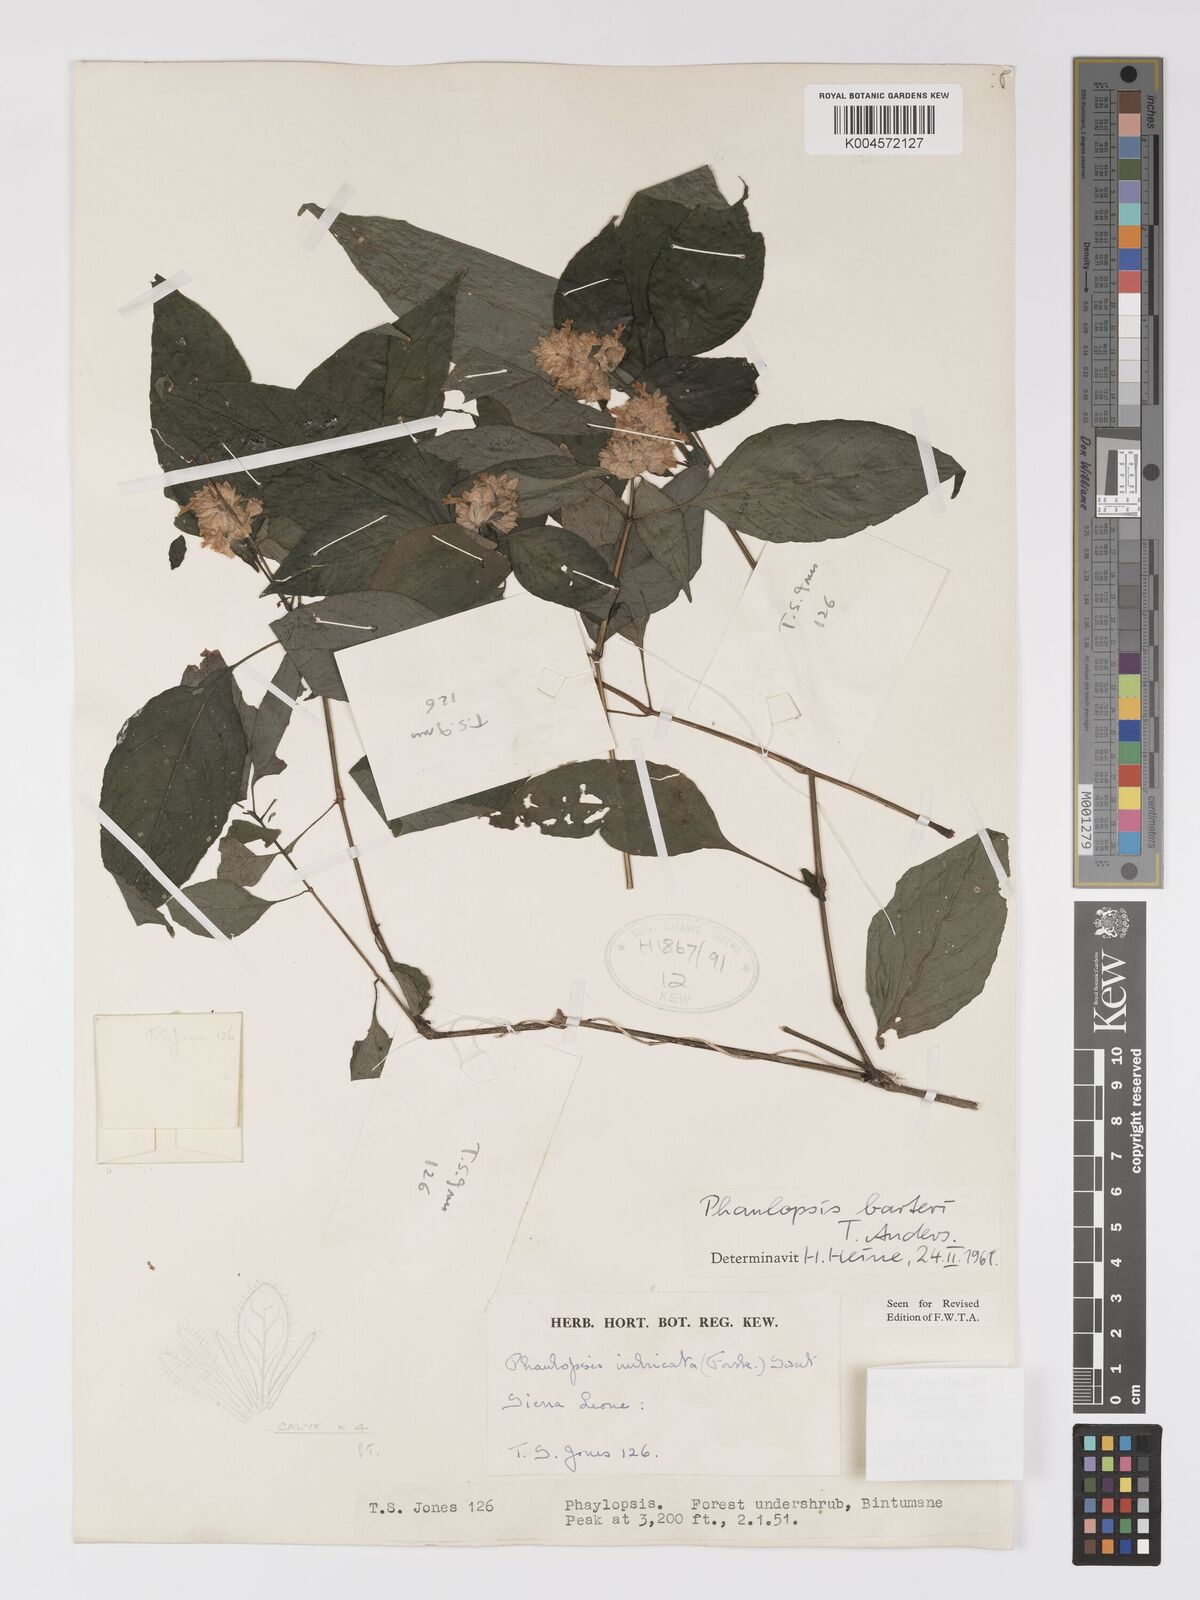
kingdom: Plantae
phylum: Tracheophyta
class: Magnoliopsida
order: Lamiales
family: Acanthaceae
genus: Phaulopsis
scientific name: Phaulopsis imbricata
